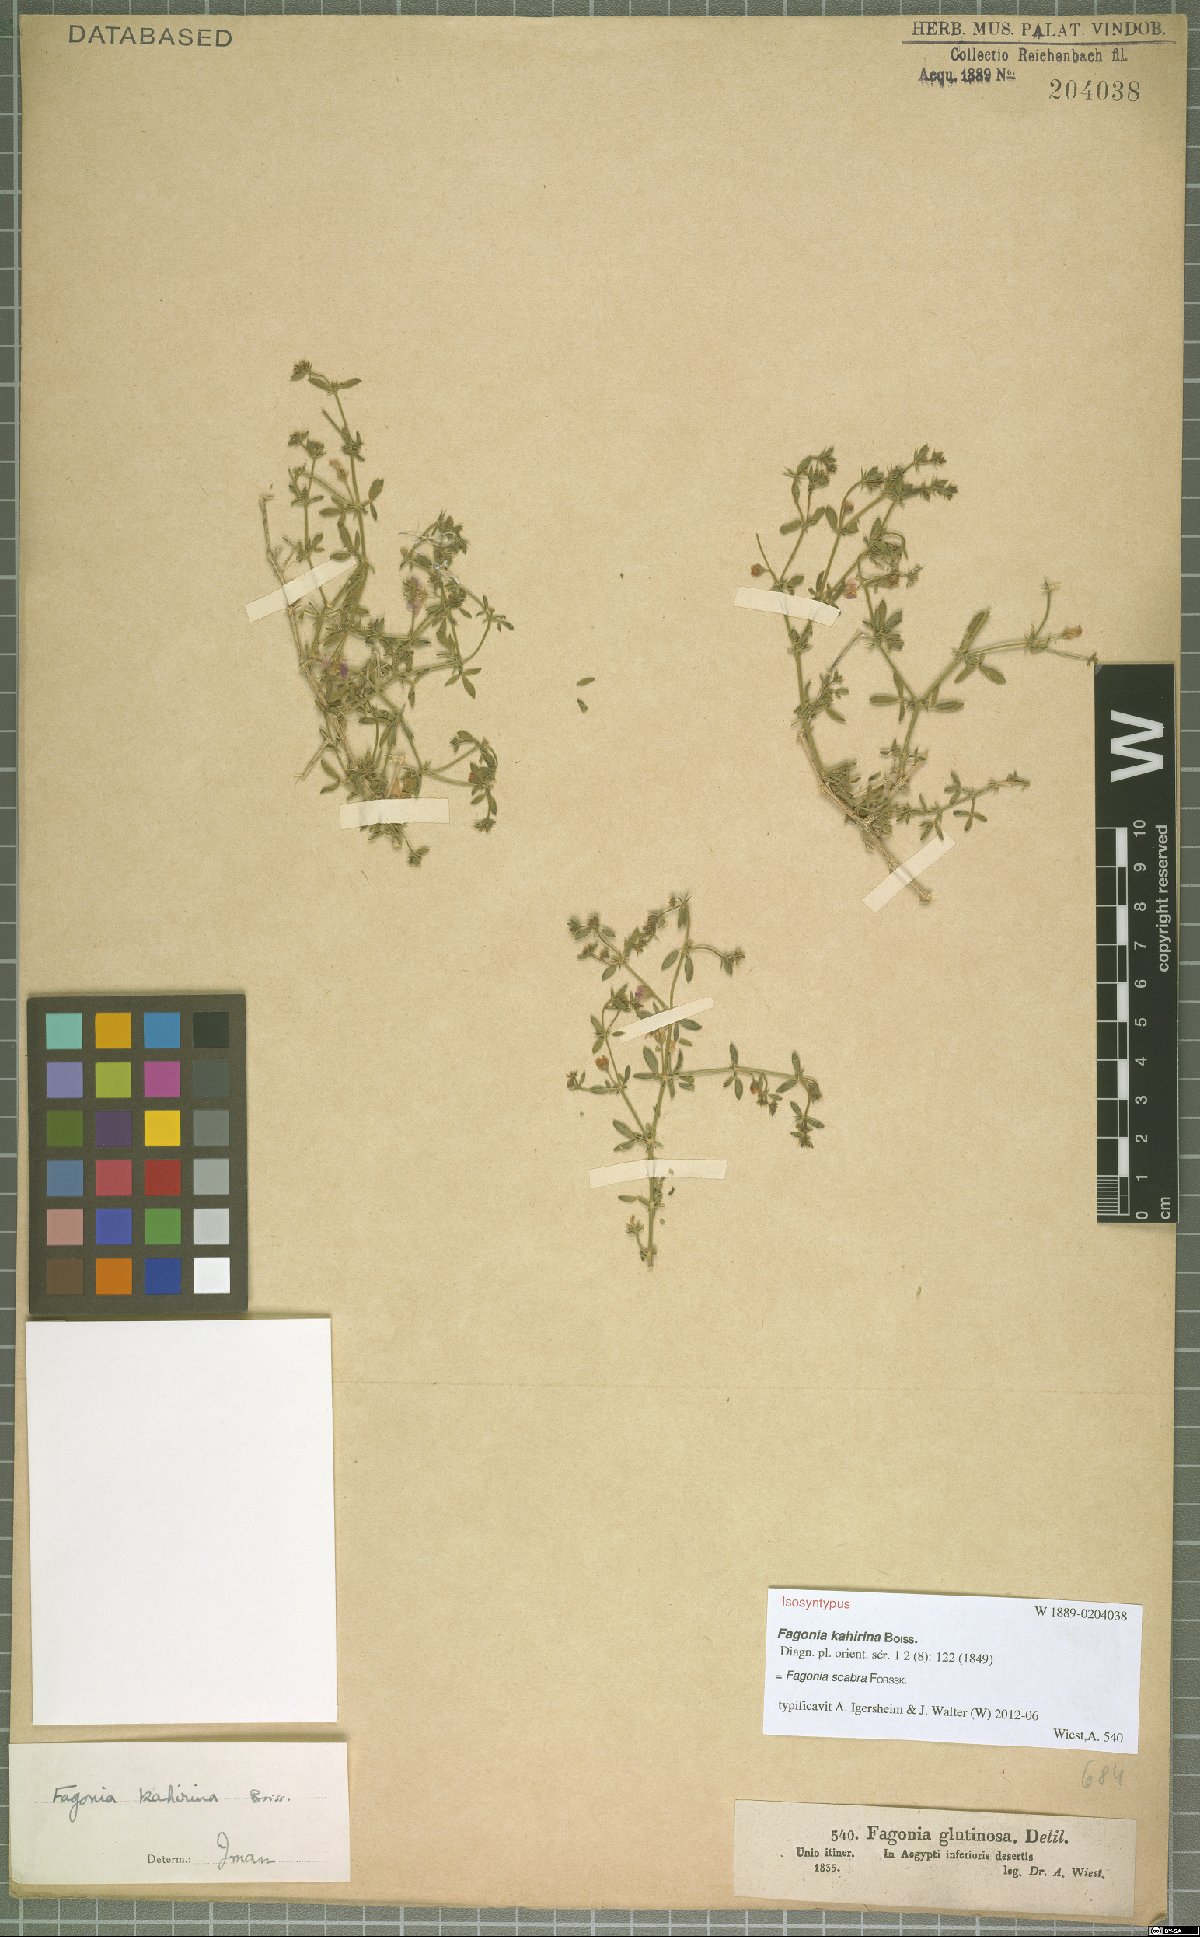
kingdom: Plantae
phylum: Tracheophyta
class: Magnoliopsida
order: Zygophyllales
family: Zygophyllaceae
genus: Fagonia
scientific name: Fagonia scabra
